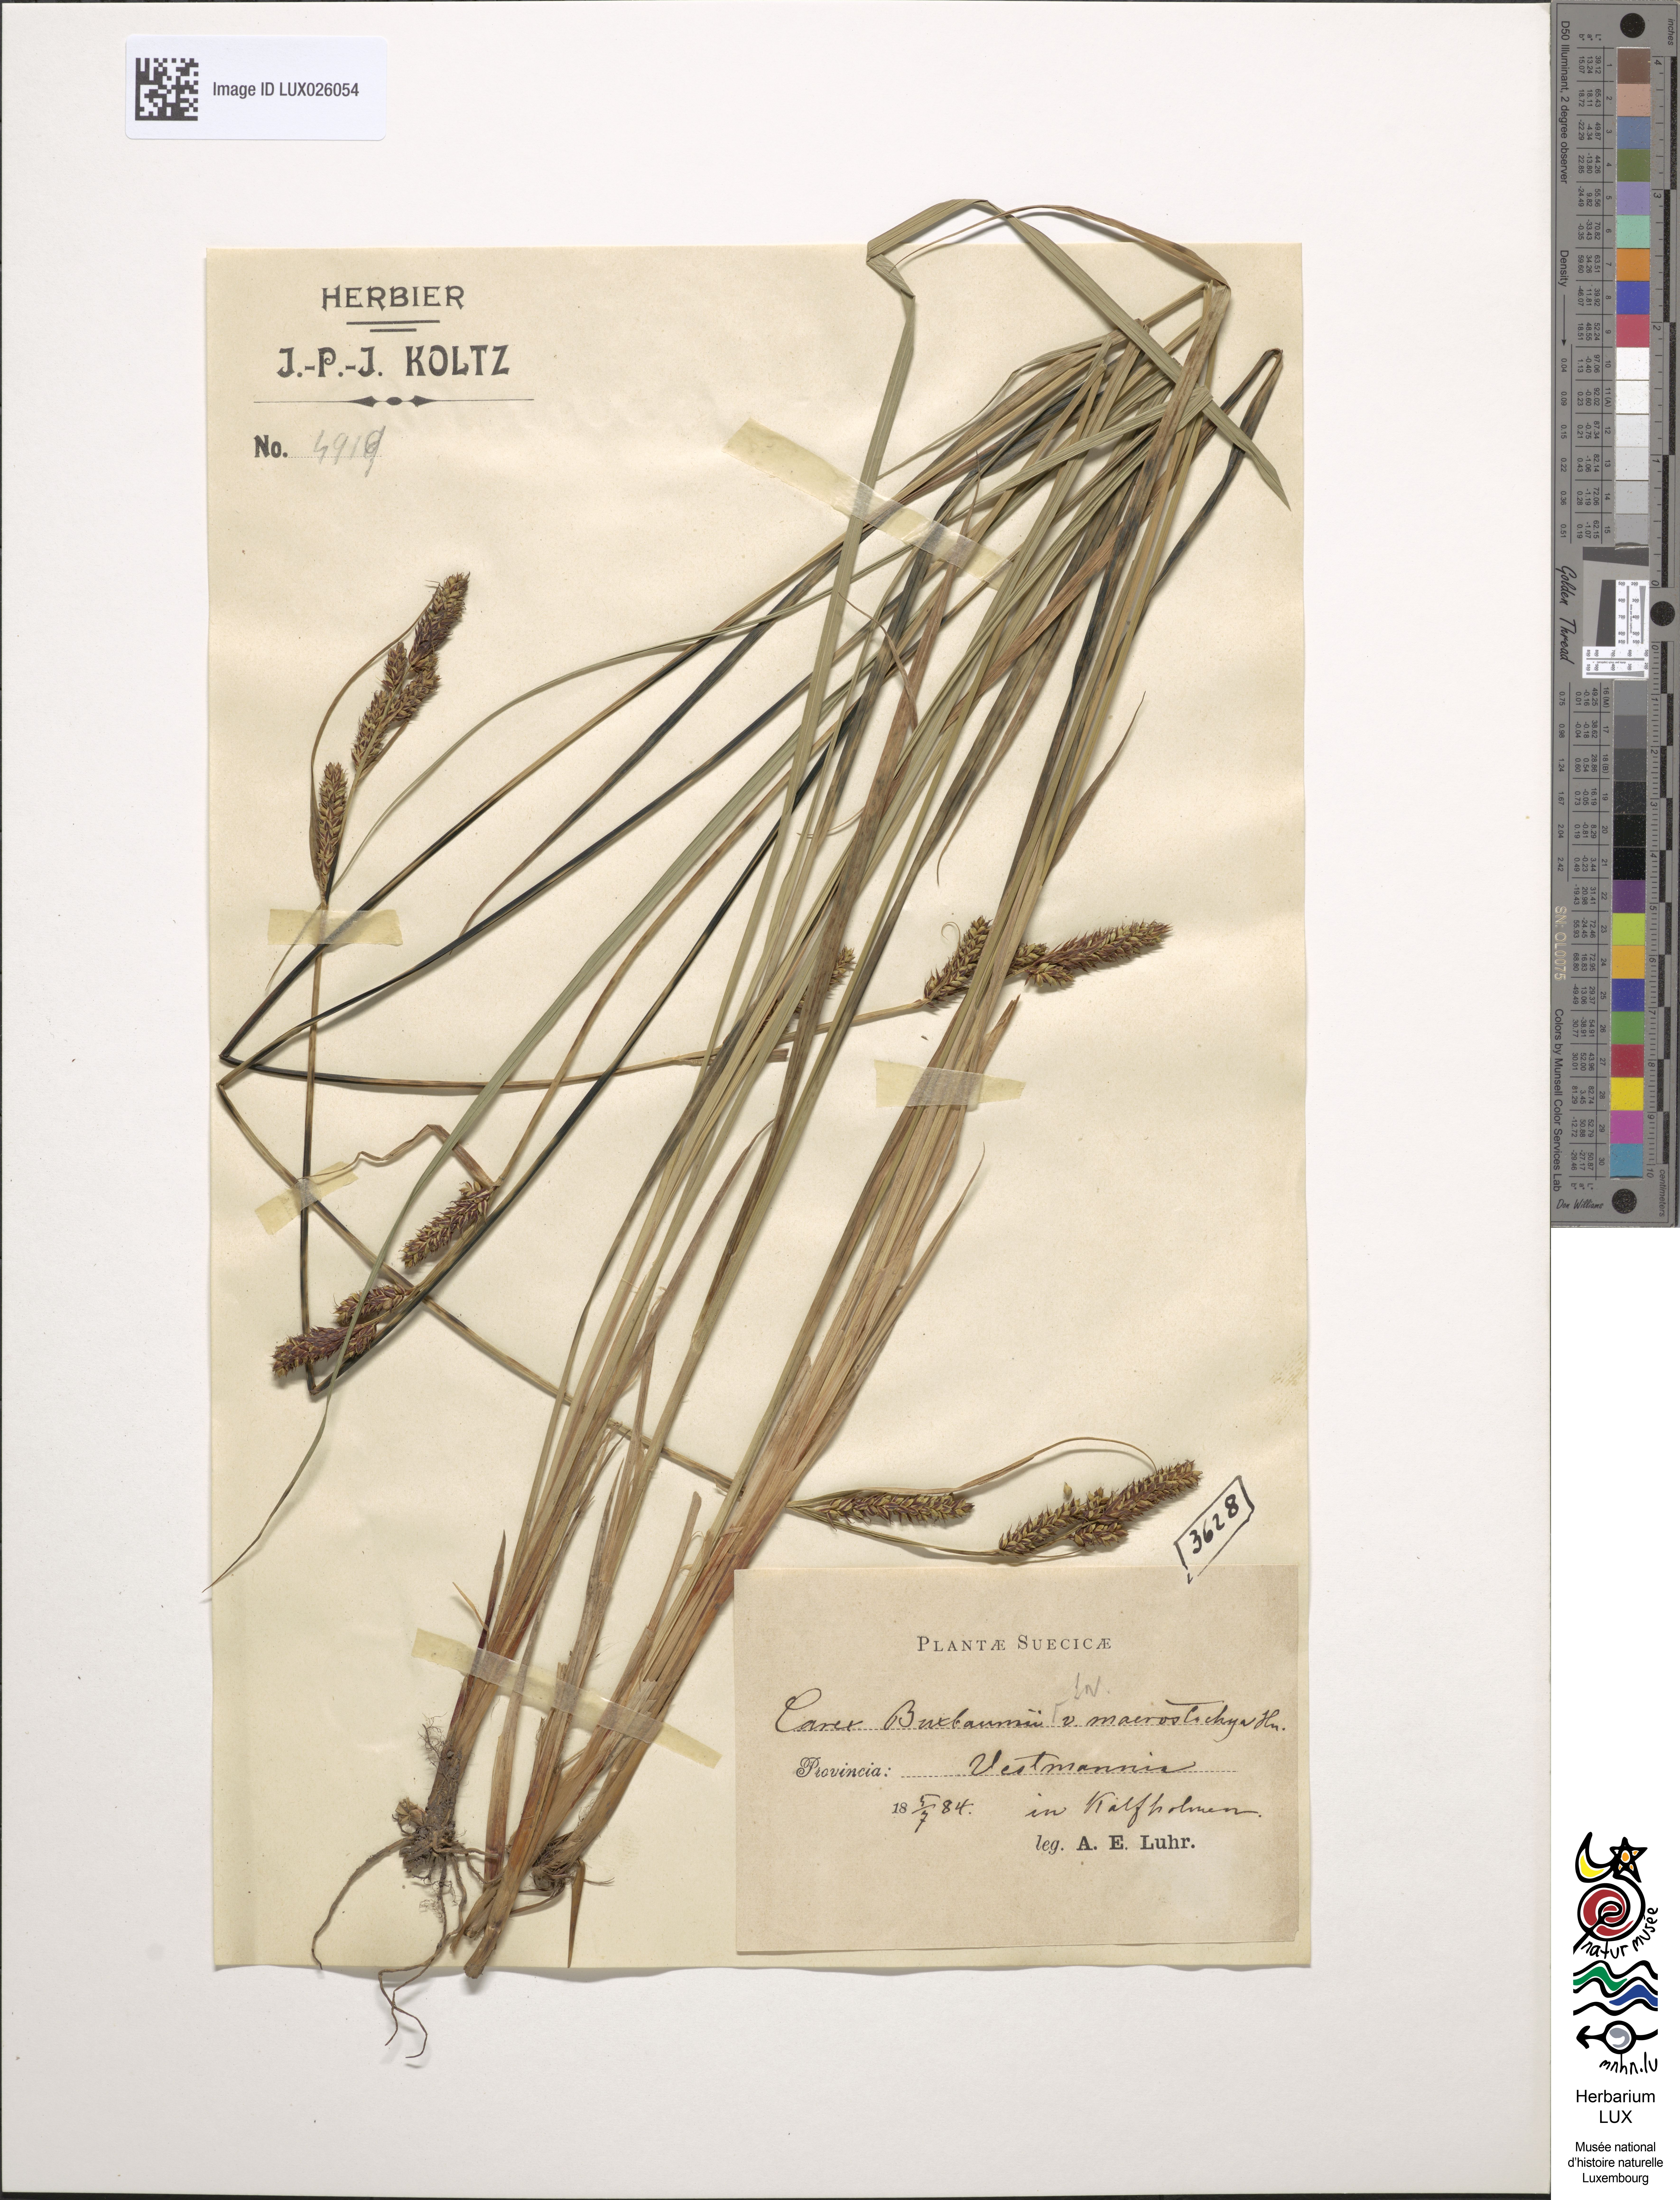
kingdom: Plantae
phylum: Tracheophyta
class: Liliopsida
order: Poales
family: Cyperaceae
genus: Carex
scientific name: Carex hartmaniorum
